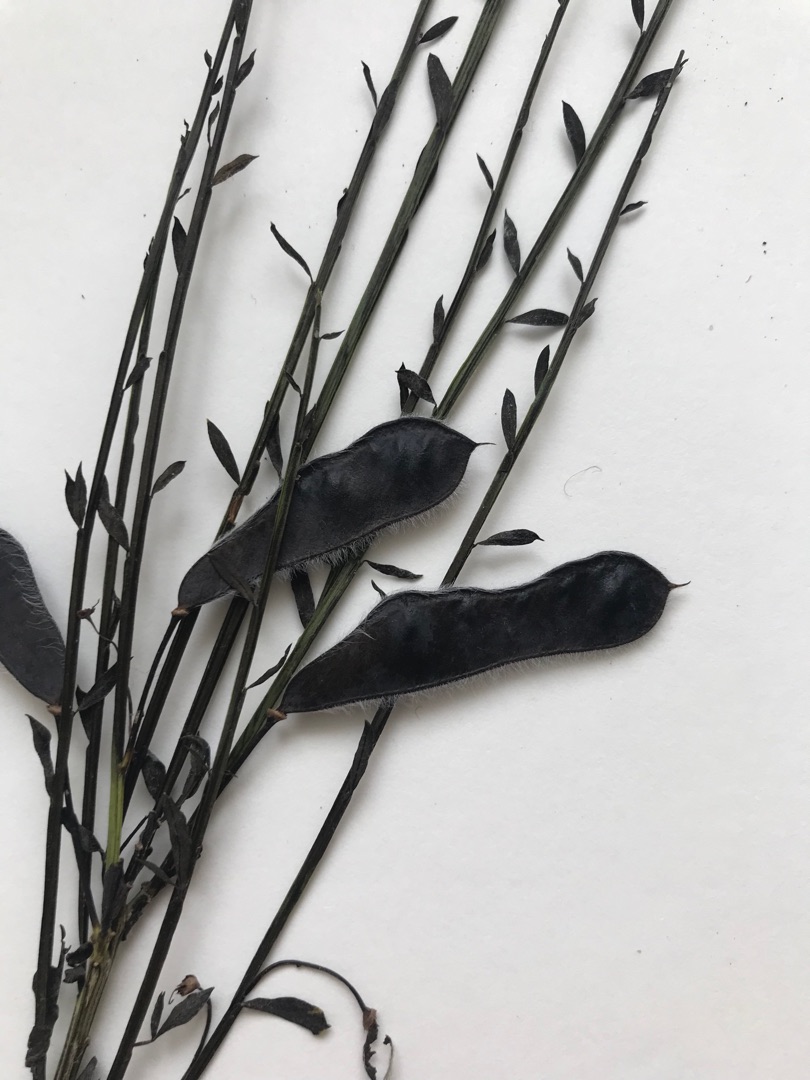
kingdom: Plantae
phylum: Tracheophyta
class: Magnoliopsida
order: Fabales
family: Fabaceae
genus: Cytisus
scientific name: Cytisus scoparius
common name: Almindelig gyvel
